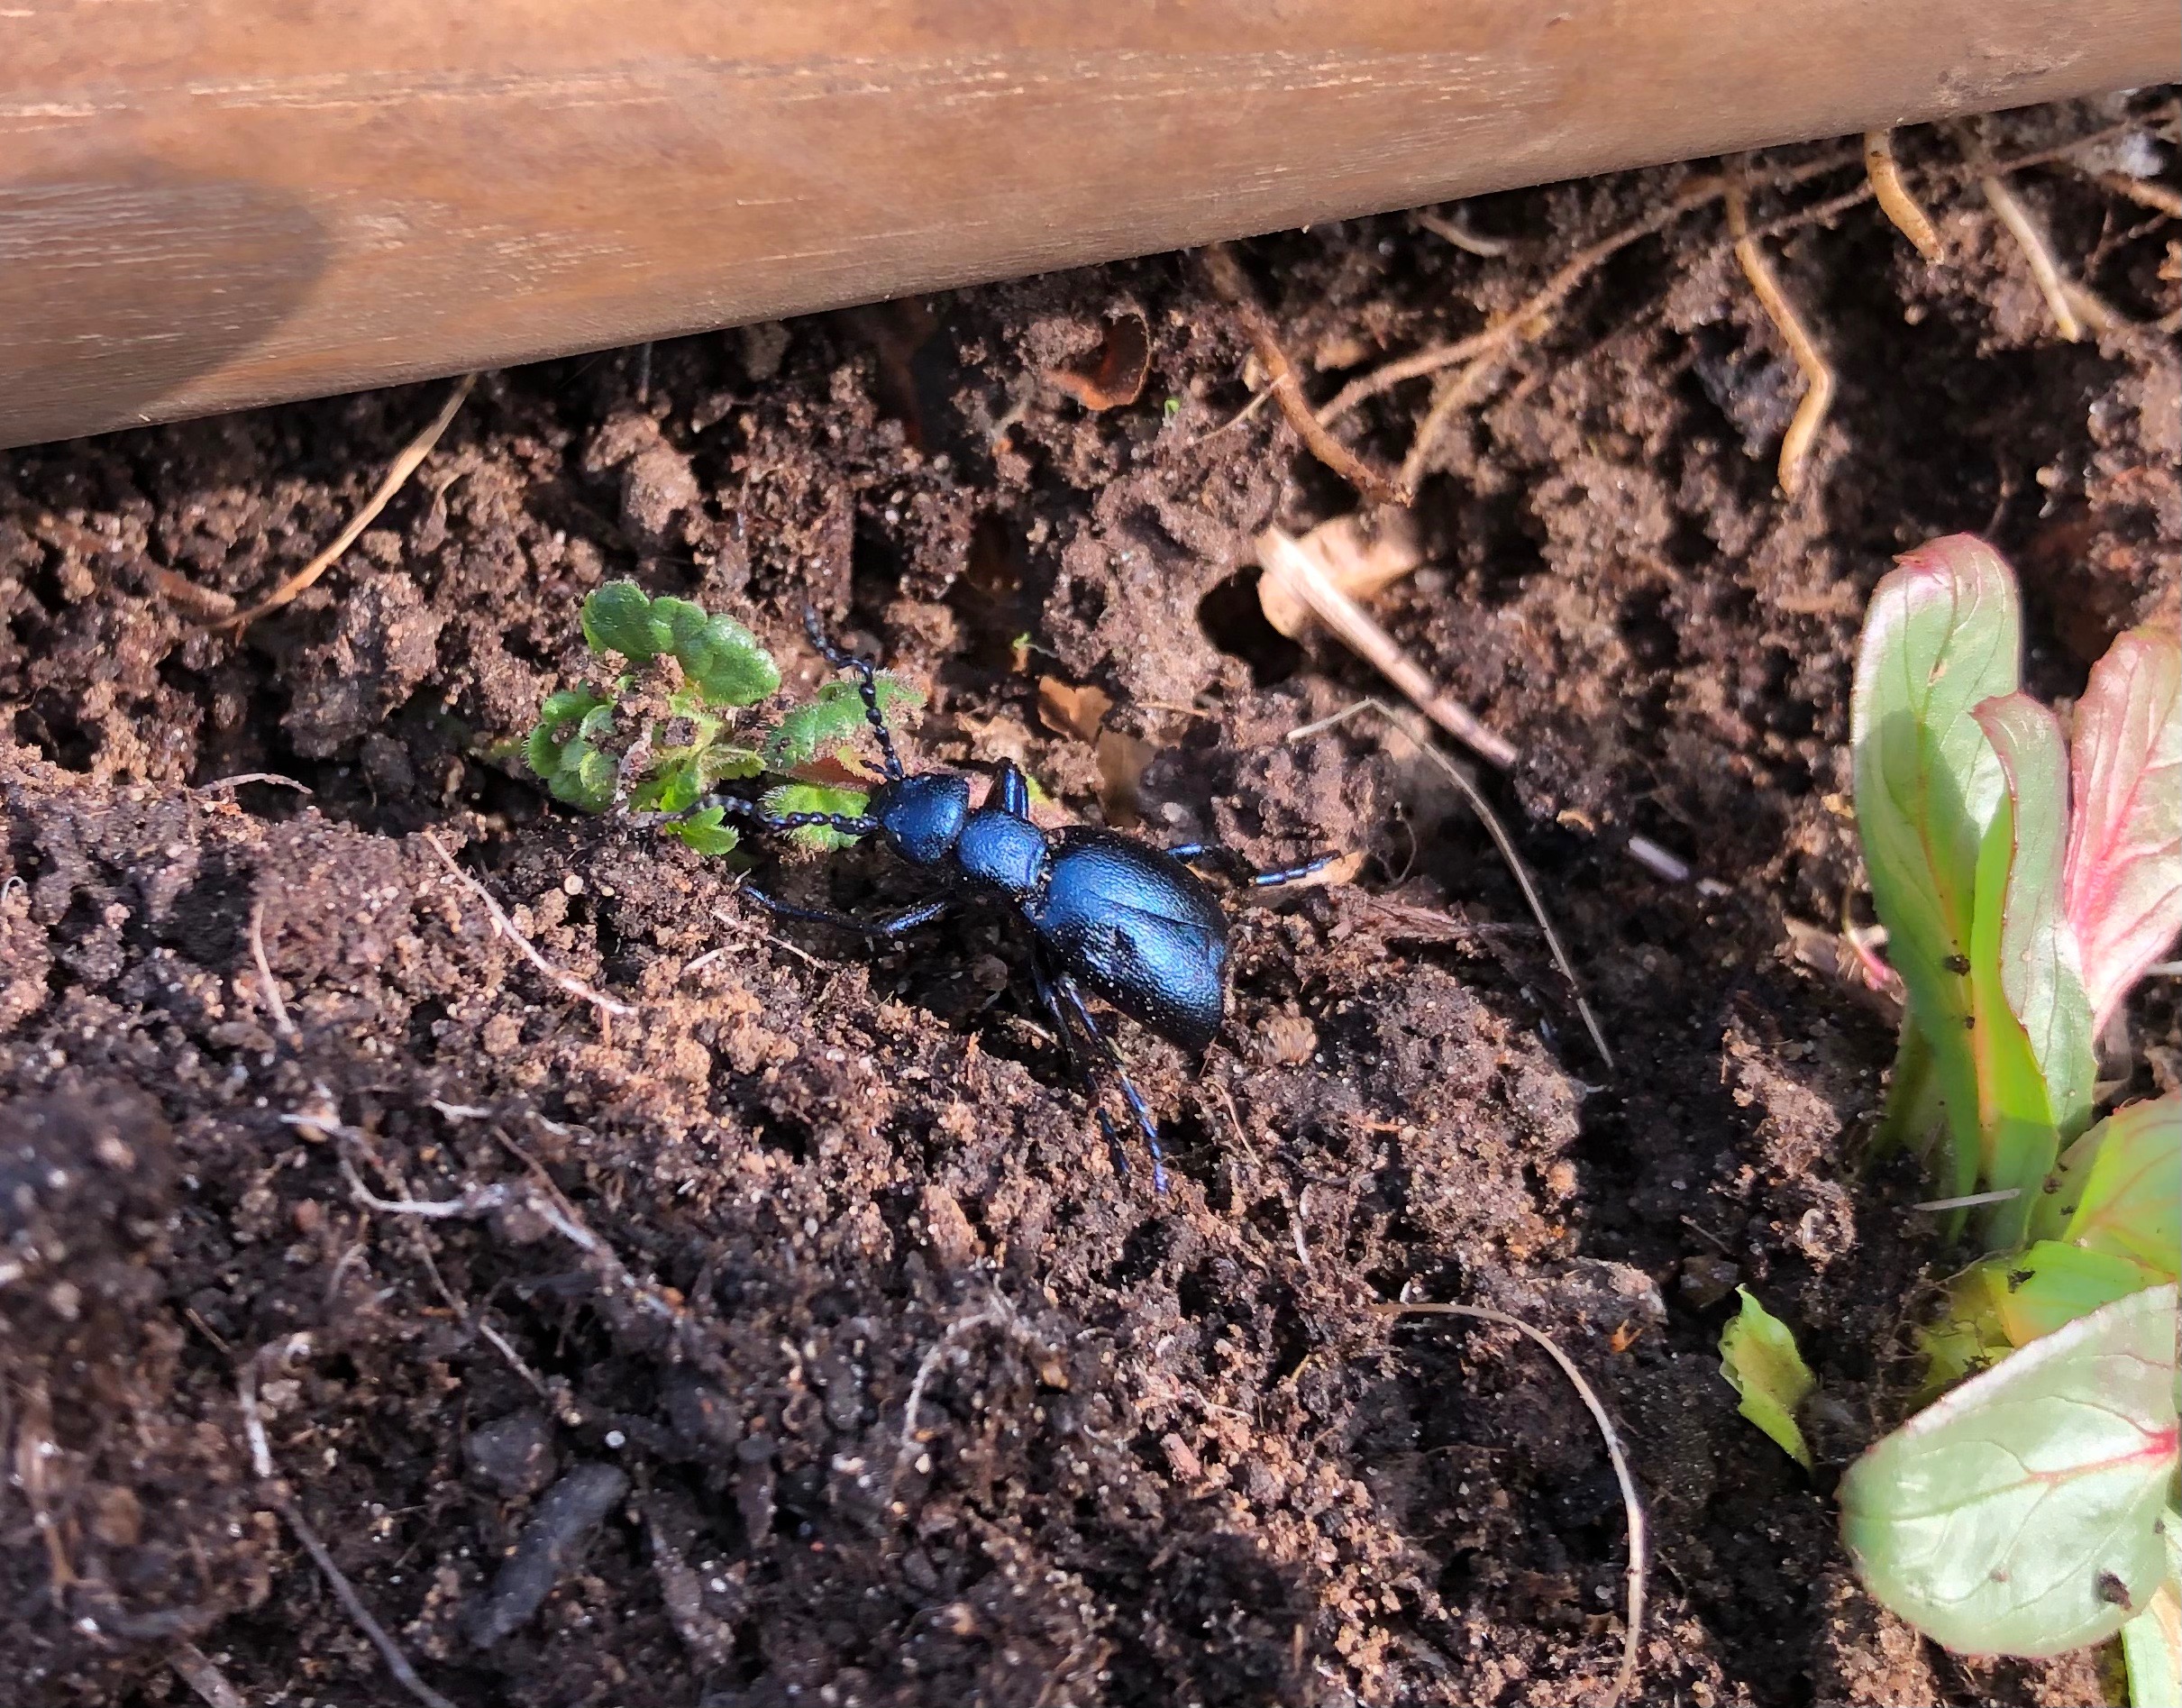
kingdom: Animalia
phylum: Arthropoda
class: Insecta
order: Coleoptera
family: Meloidae
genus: Meloe
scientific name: Meloe violaceus
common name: Blå oliebille
